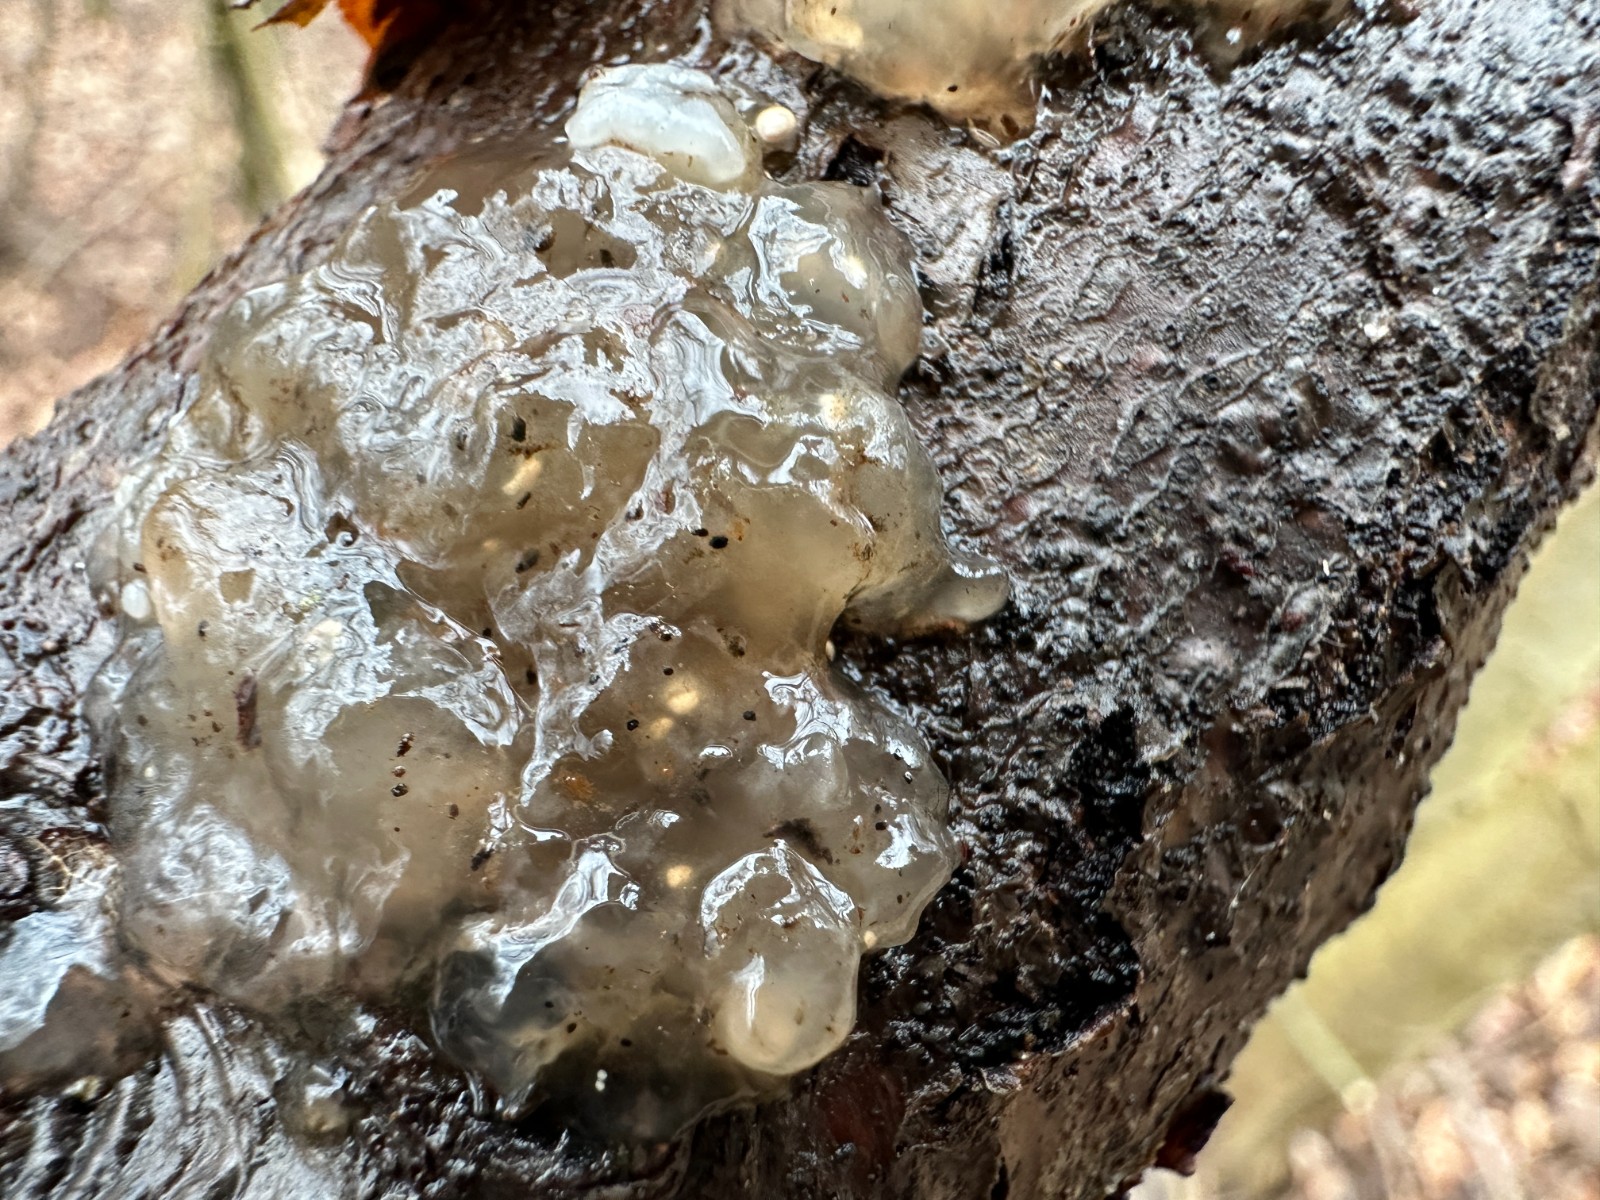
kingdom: Fungi
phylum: Basidiomycota
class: Agaricomycetes
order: Auriculariales
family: Hyaloriaceae
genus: Myxarium
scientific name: Myxarium nucleatum
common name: klar bævretop
